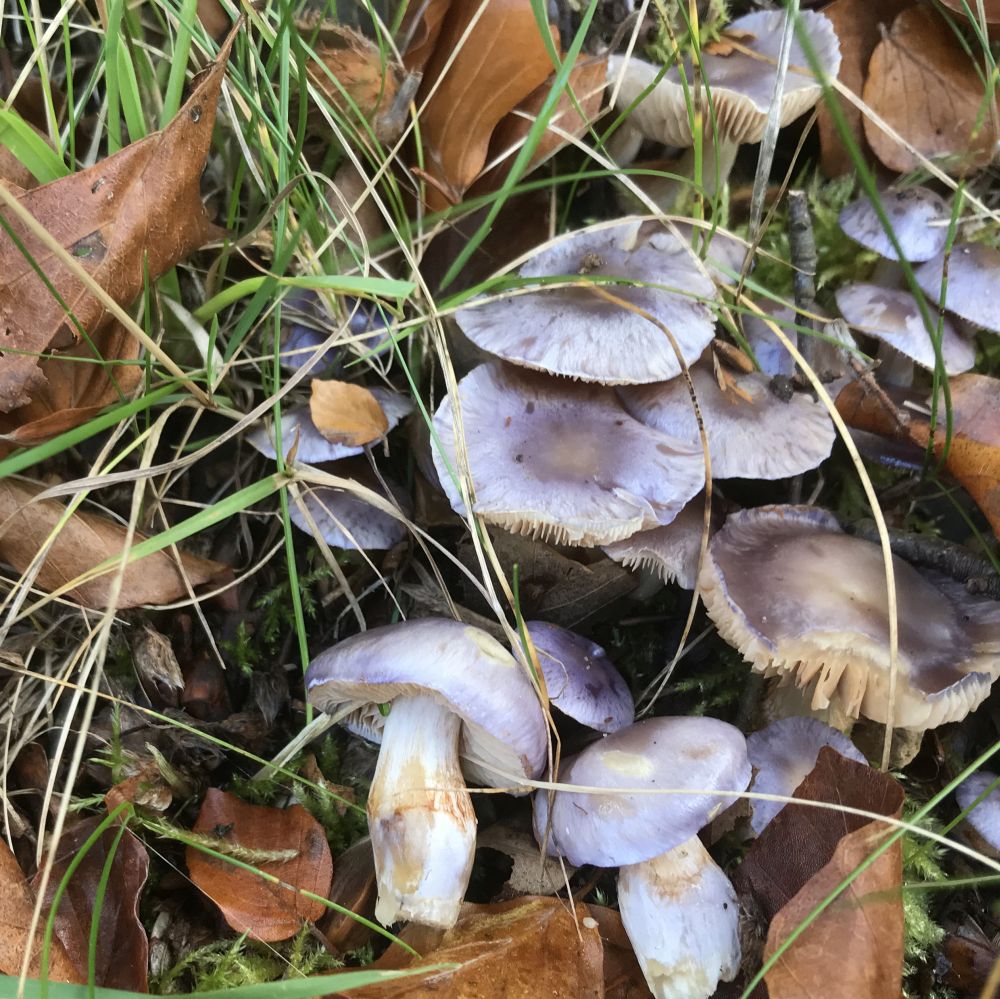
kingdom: Fungi
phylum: Basidiomycota
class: Agaricomycetes
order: Agaricales
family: Cortinariaceae
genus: Thaxterogaster
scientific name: Thaxterogaster croceocoeruleus
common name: blågullig slørhat
